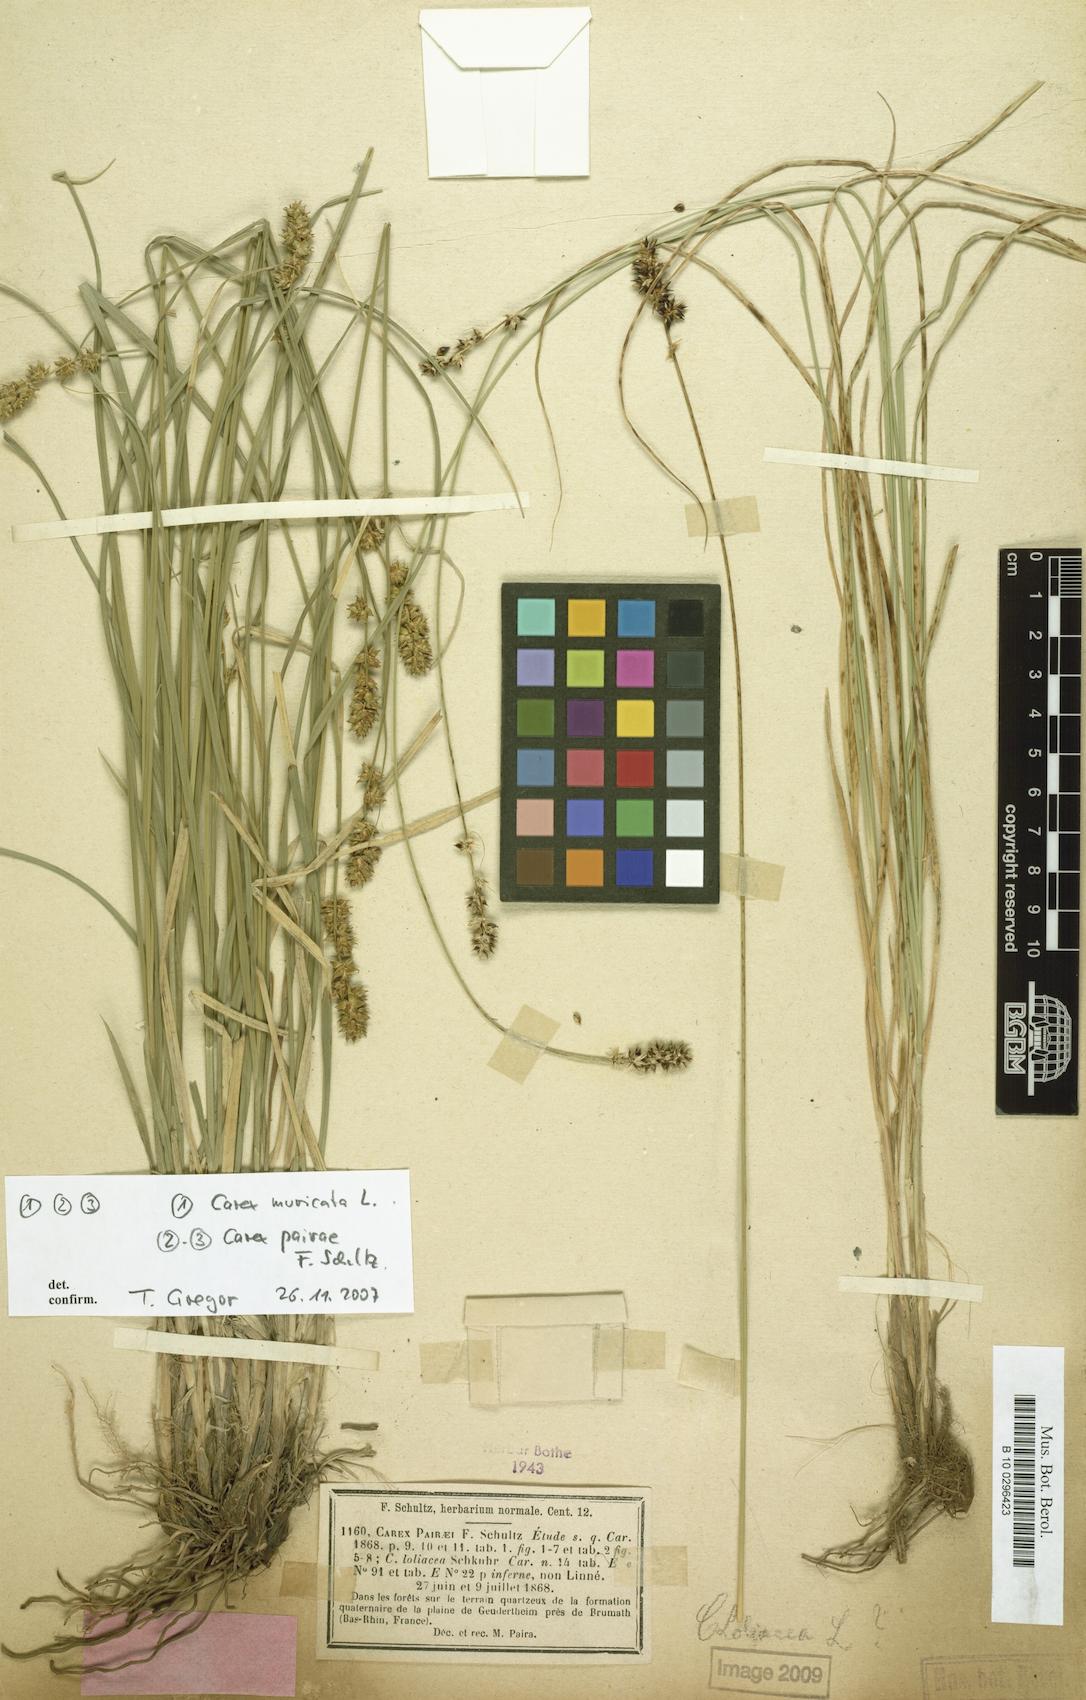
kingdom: Plantae
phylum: Tracheophyta
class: Liliopsida
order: Poales
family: Cyperaceae
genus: Carex
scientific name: Carex pairae
